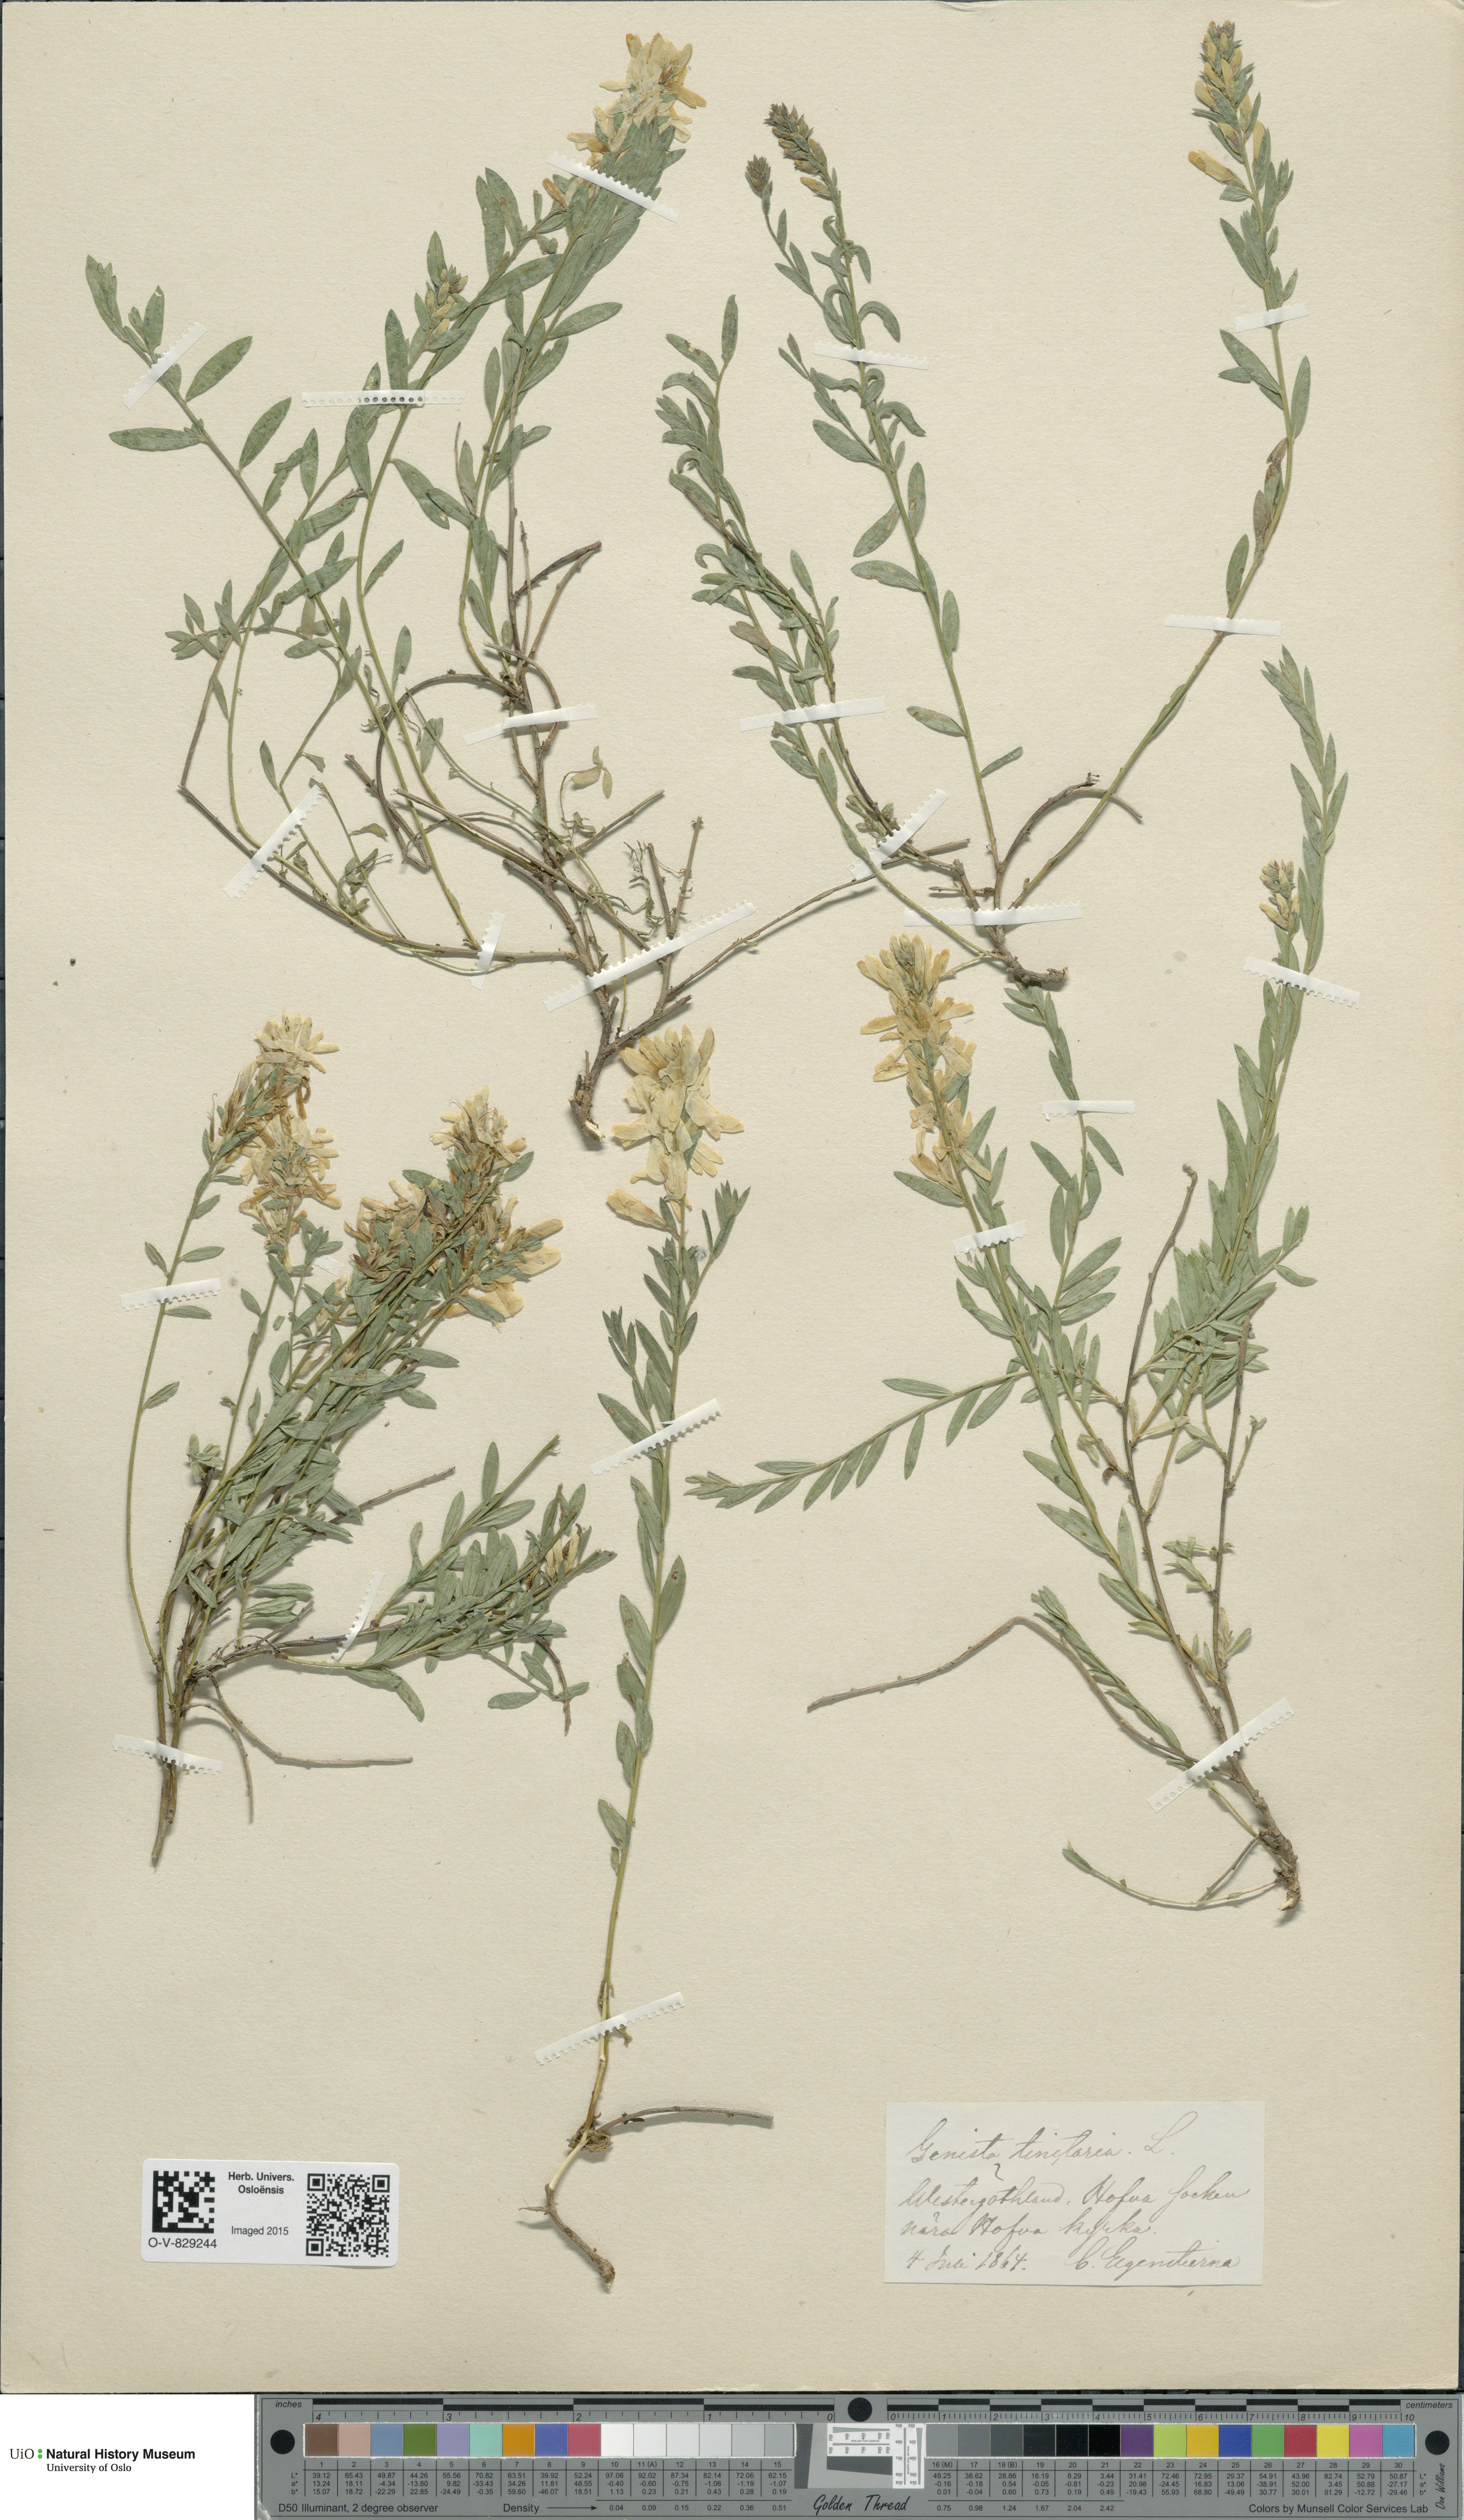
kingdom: Plantae
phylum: Tracheophyta
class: Magnoliopsida
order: Fabales
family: Fabaceae
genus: Genista
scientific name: Genista tinctoria
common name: Dyer's greenweed
